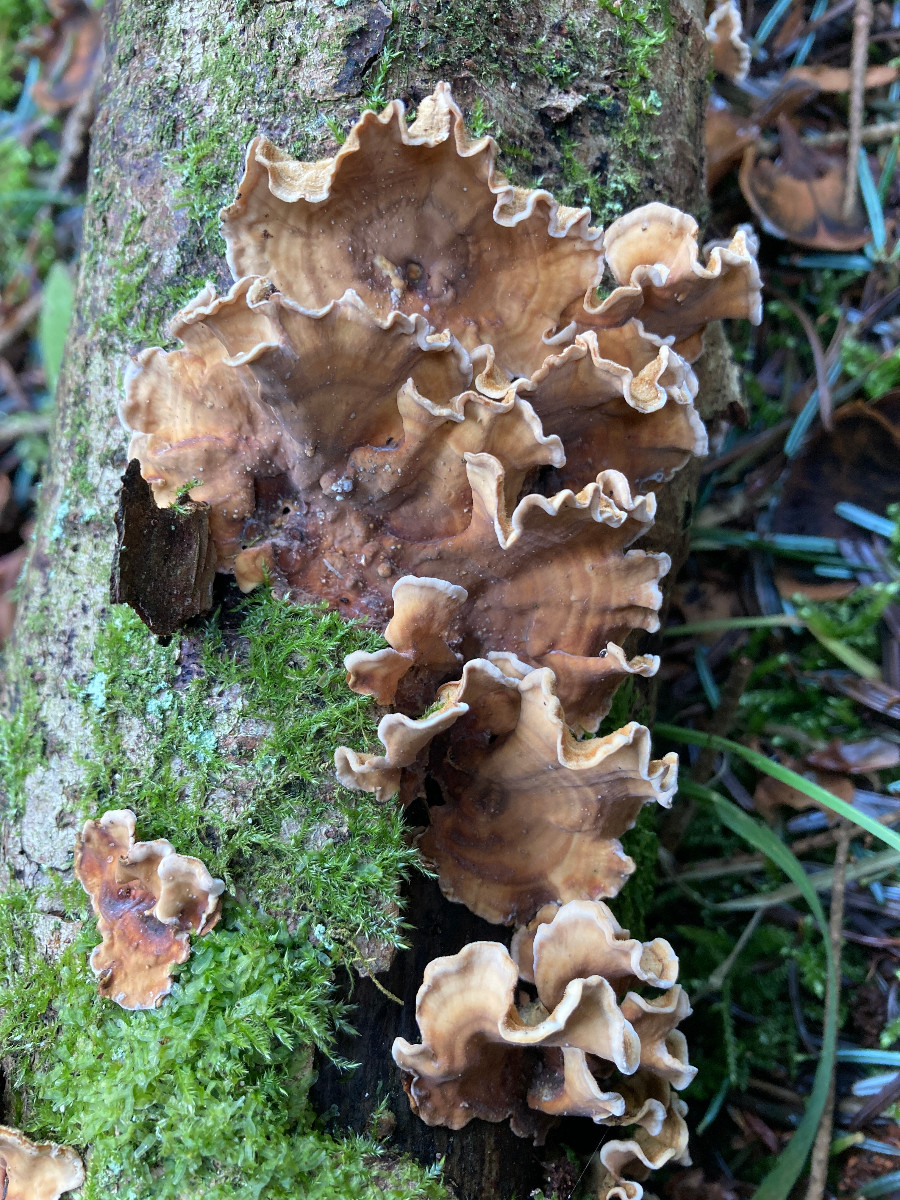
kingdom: Fungi
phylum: Basidiomycota
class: Agaricomycetes
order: Russulales
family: Stereaceae
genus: Stereum
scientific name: Stereum hirsutum
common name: håret lædersvamp
